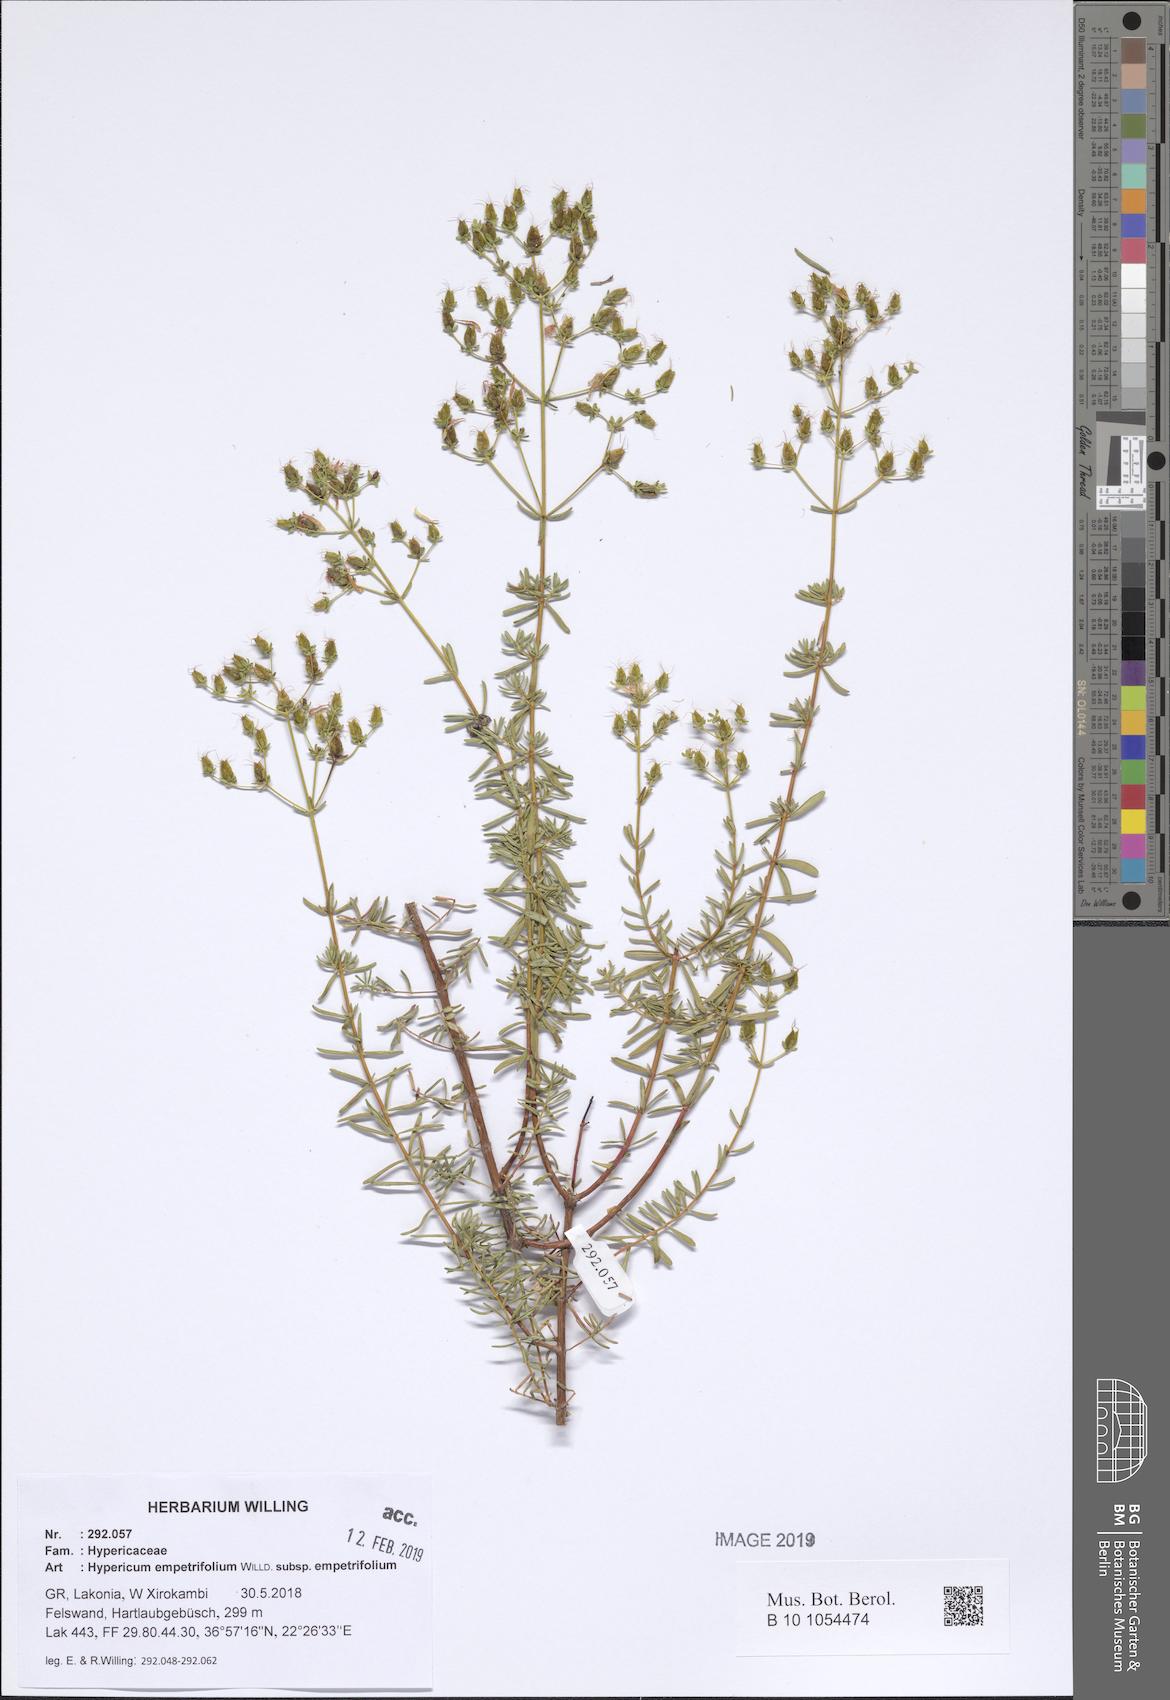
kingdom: Plantae
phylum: Tracheophyta
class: Magnoliopsida
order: Malpighiales
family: Hypericaceae
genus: Hypericum
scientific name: Hypericum empetrifolium
